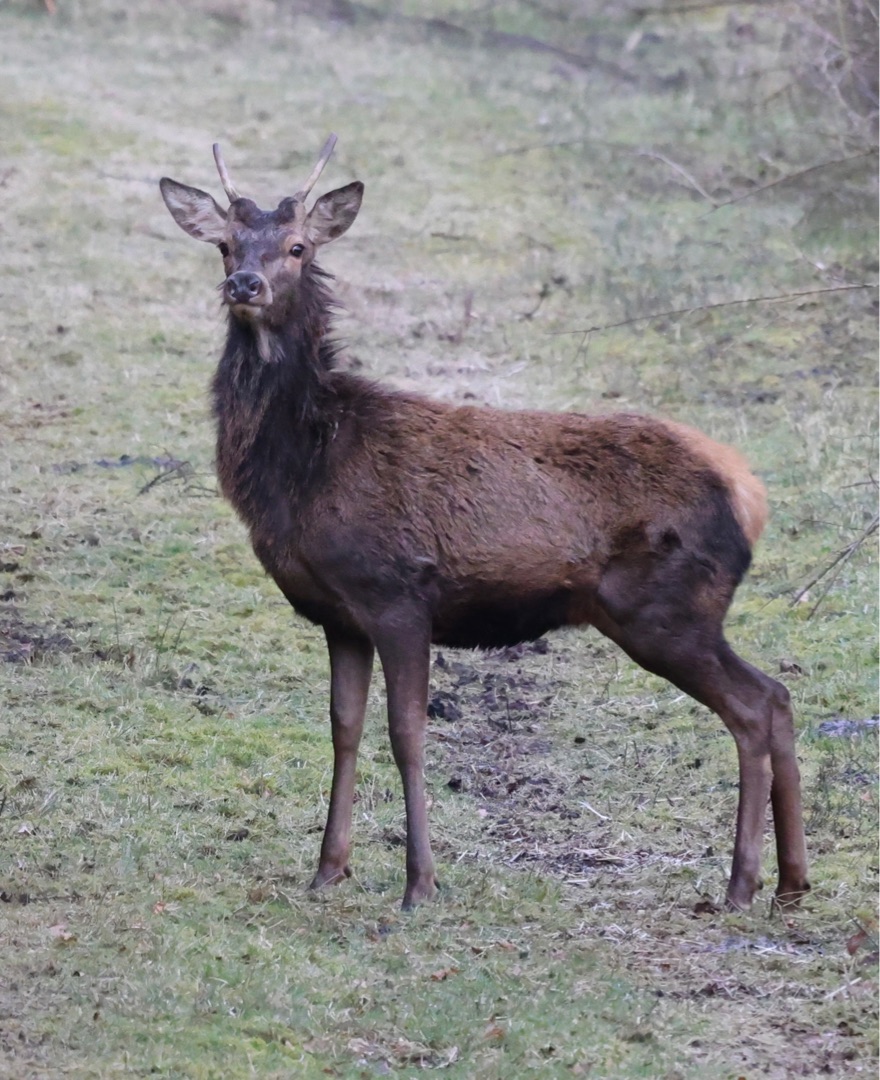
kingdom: Animalia
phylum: Chordata
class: Mammalia
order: Artiodactyla
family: Cervidae
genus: Cervus
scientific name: Cervus elaphus
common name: Krondyr
